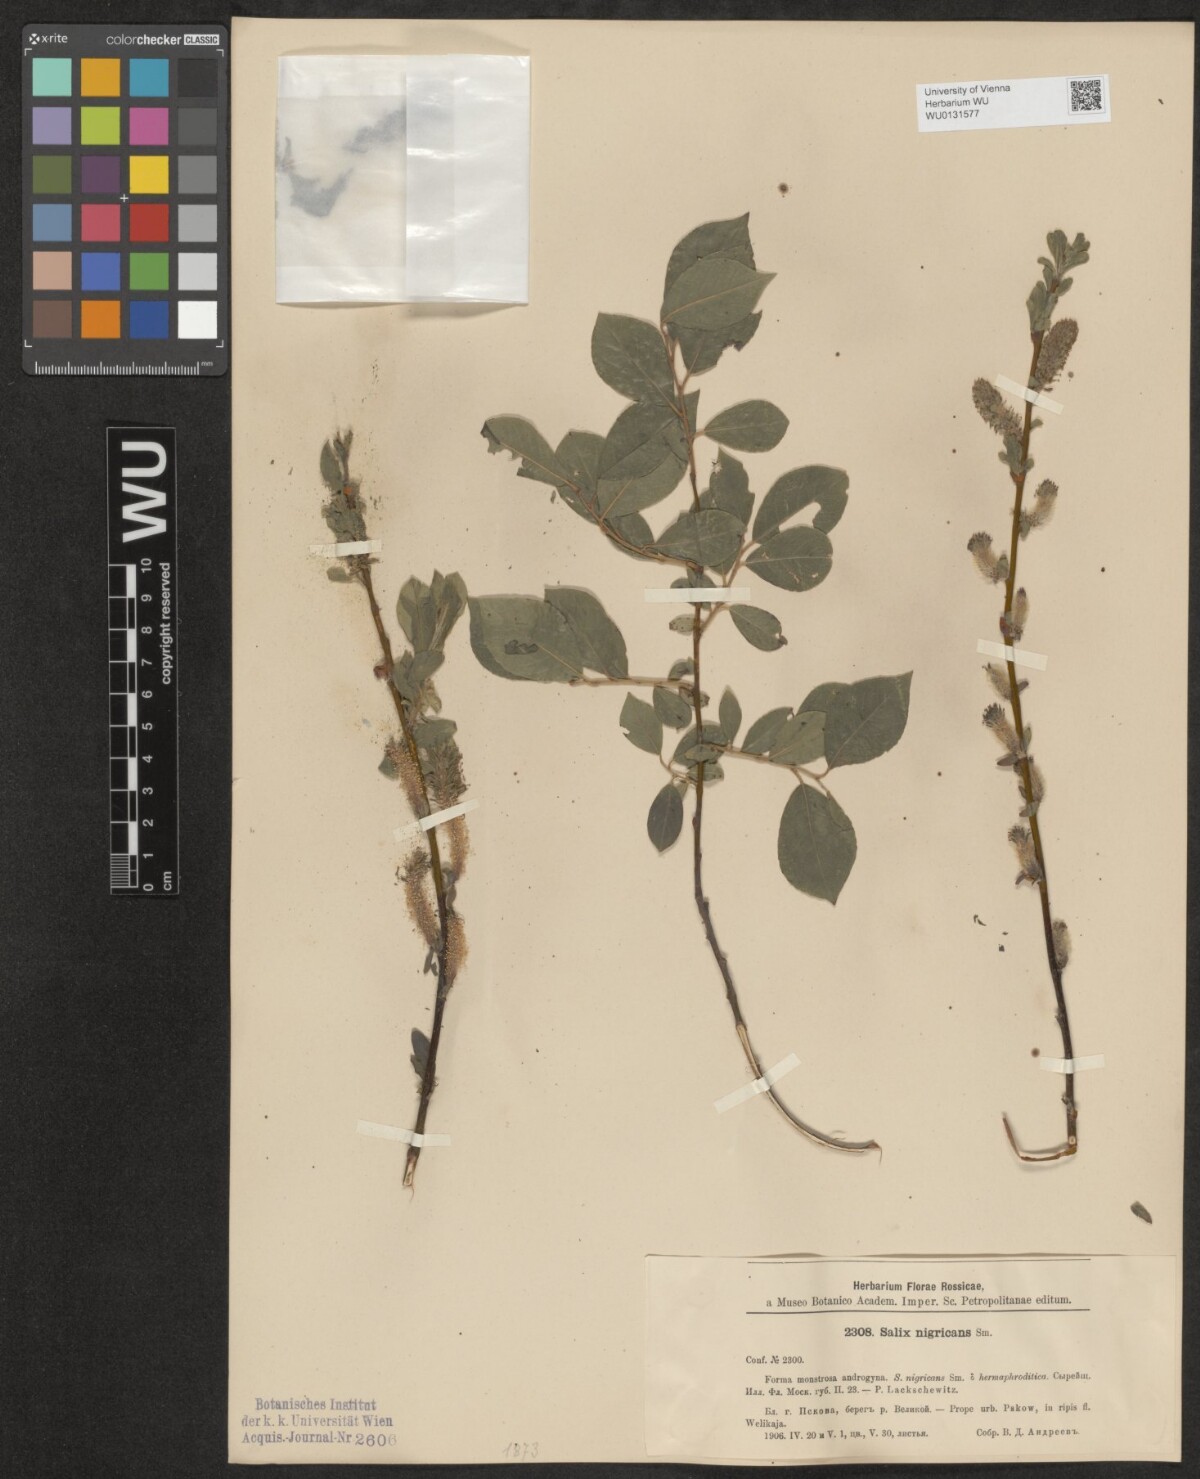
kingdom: Plantae
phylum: Tracheophyta
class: Magnoliopsida
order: Malpighiales
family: Salicaceae
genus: Salix
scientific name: Salix myrsinifolia
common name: Dark-leaved willow
